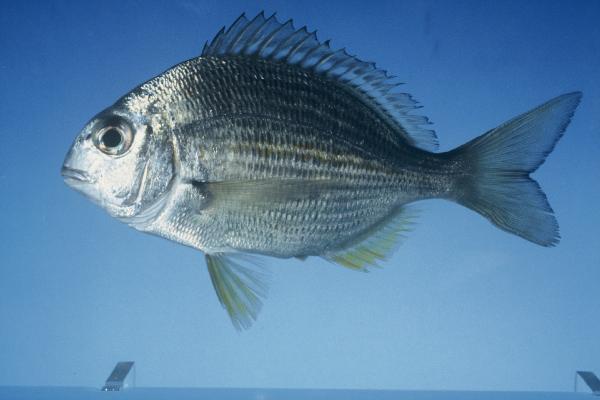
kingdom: Animalia
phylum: Chordata
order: Perciformes
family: Sparidae
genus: Rhabdosargus
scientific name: Rhabdosargus holubi
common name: Cape stumpnose
